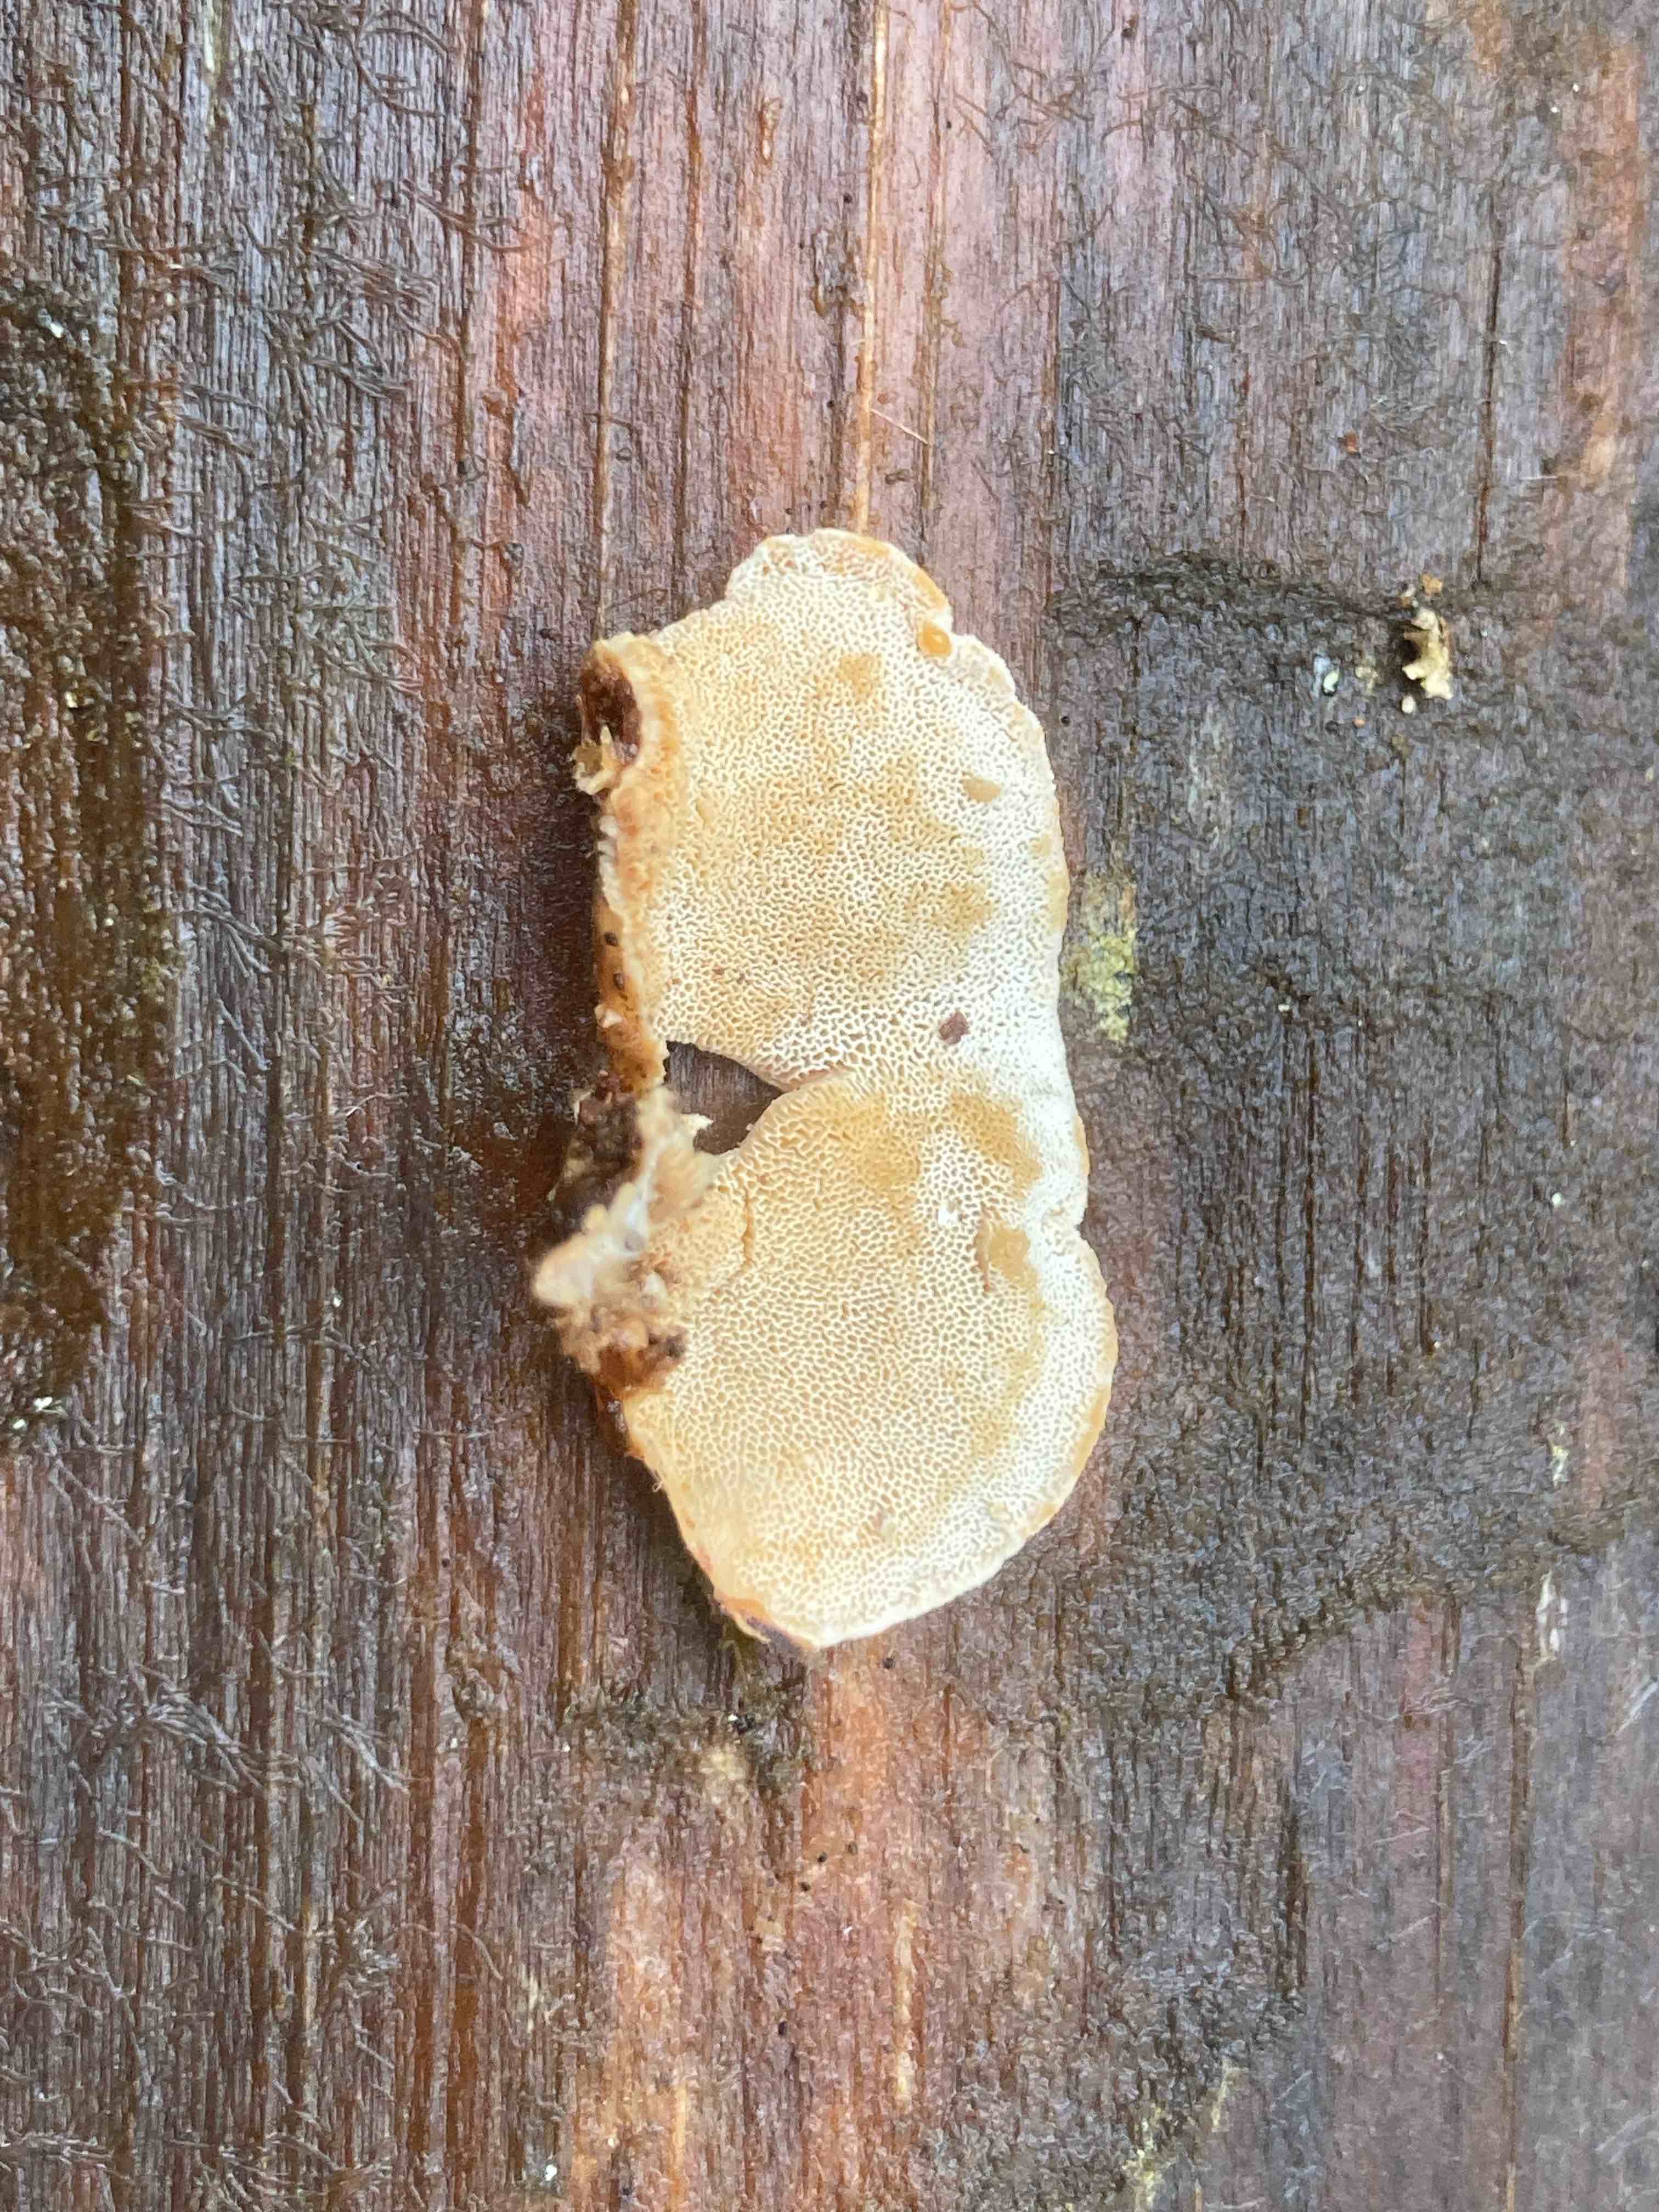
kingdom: Fungi
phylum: Basidiomycota
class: Agaricomycetes
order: Polyporales
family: Incrustoporiaceae
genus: Skeletocutis
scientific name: Skeletocutis amorpha
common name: orange krystalporesvamp
